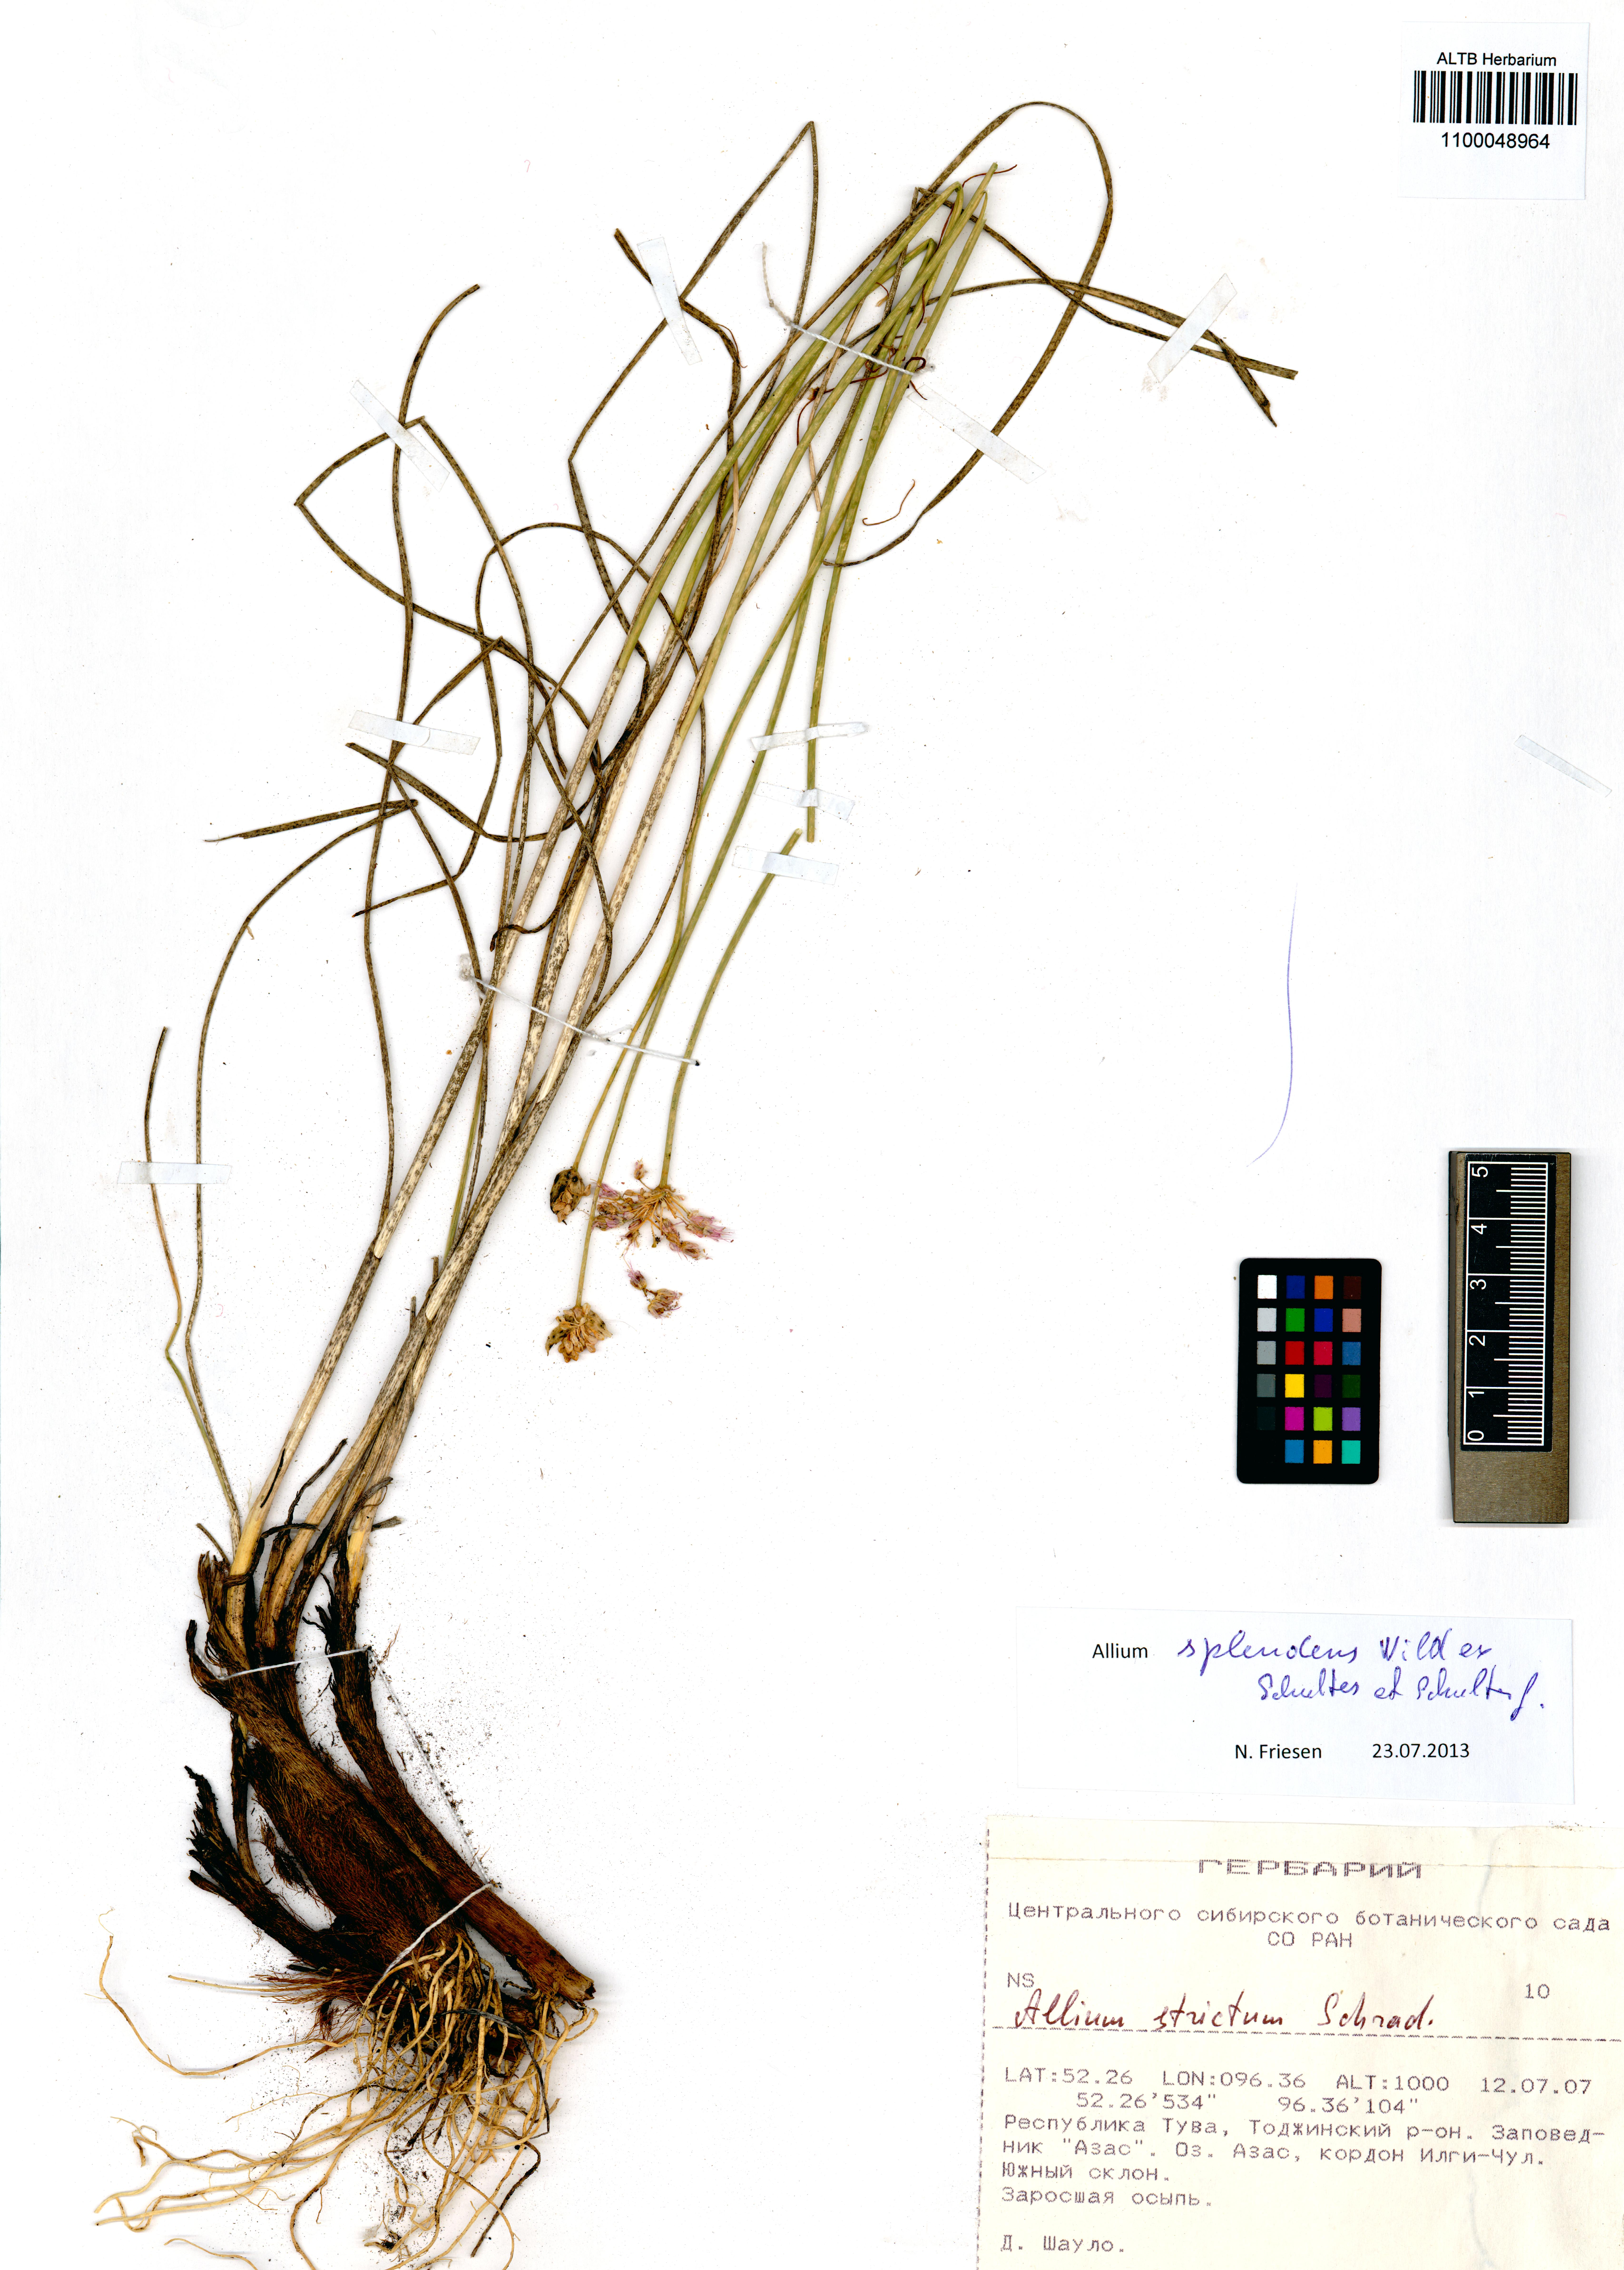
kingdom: Plantae
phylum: Tracheophyta
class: Liliopsida
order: Asparagales
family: Amaryllidaceae
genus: Allium
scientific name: Allium splendens
